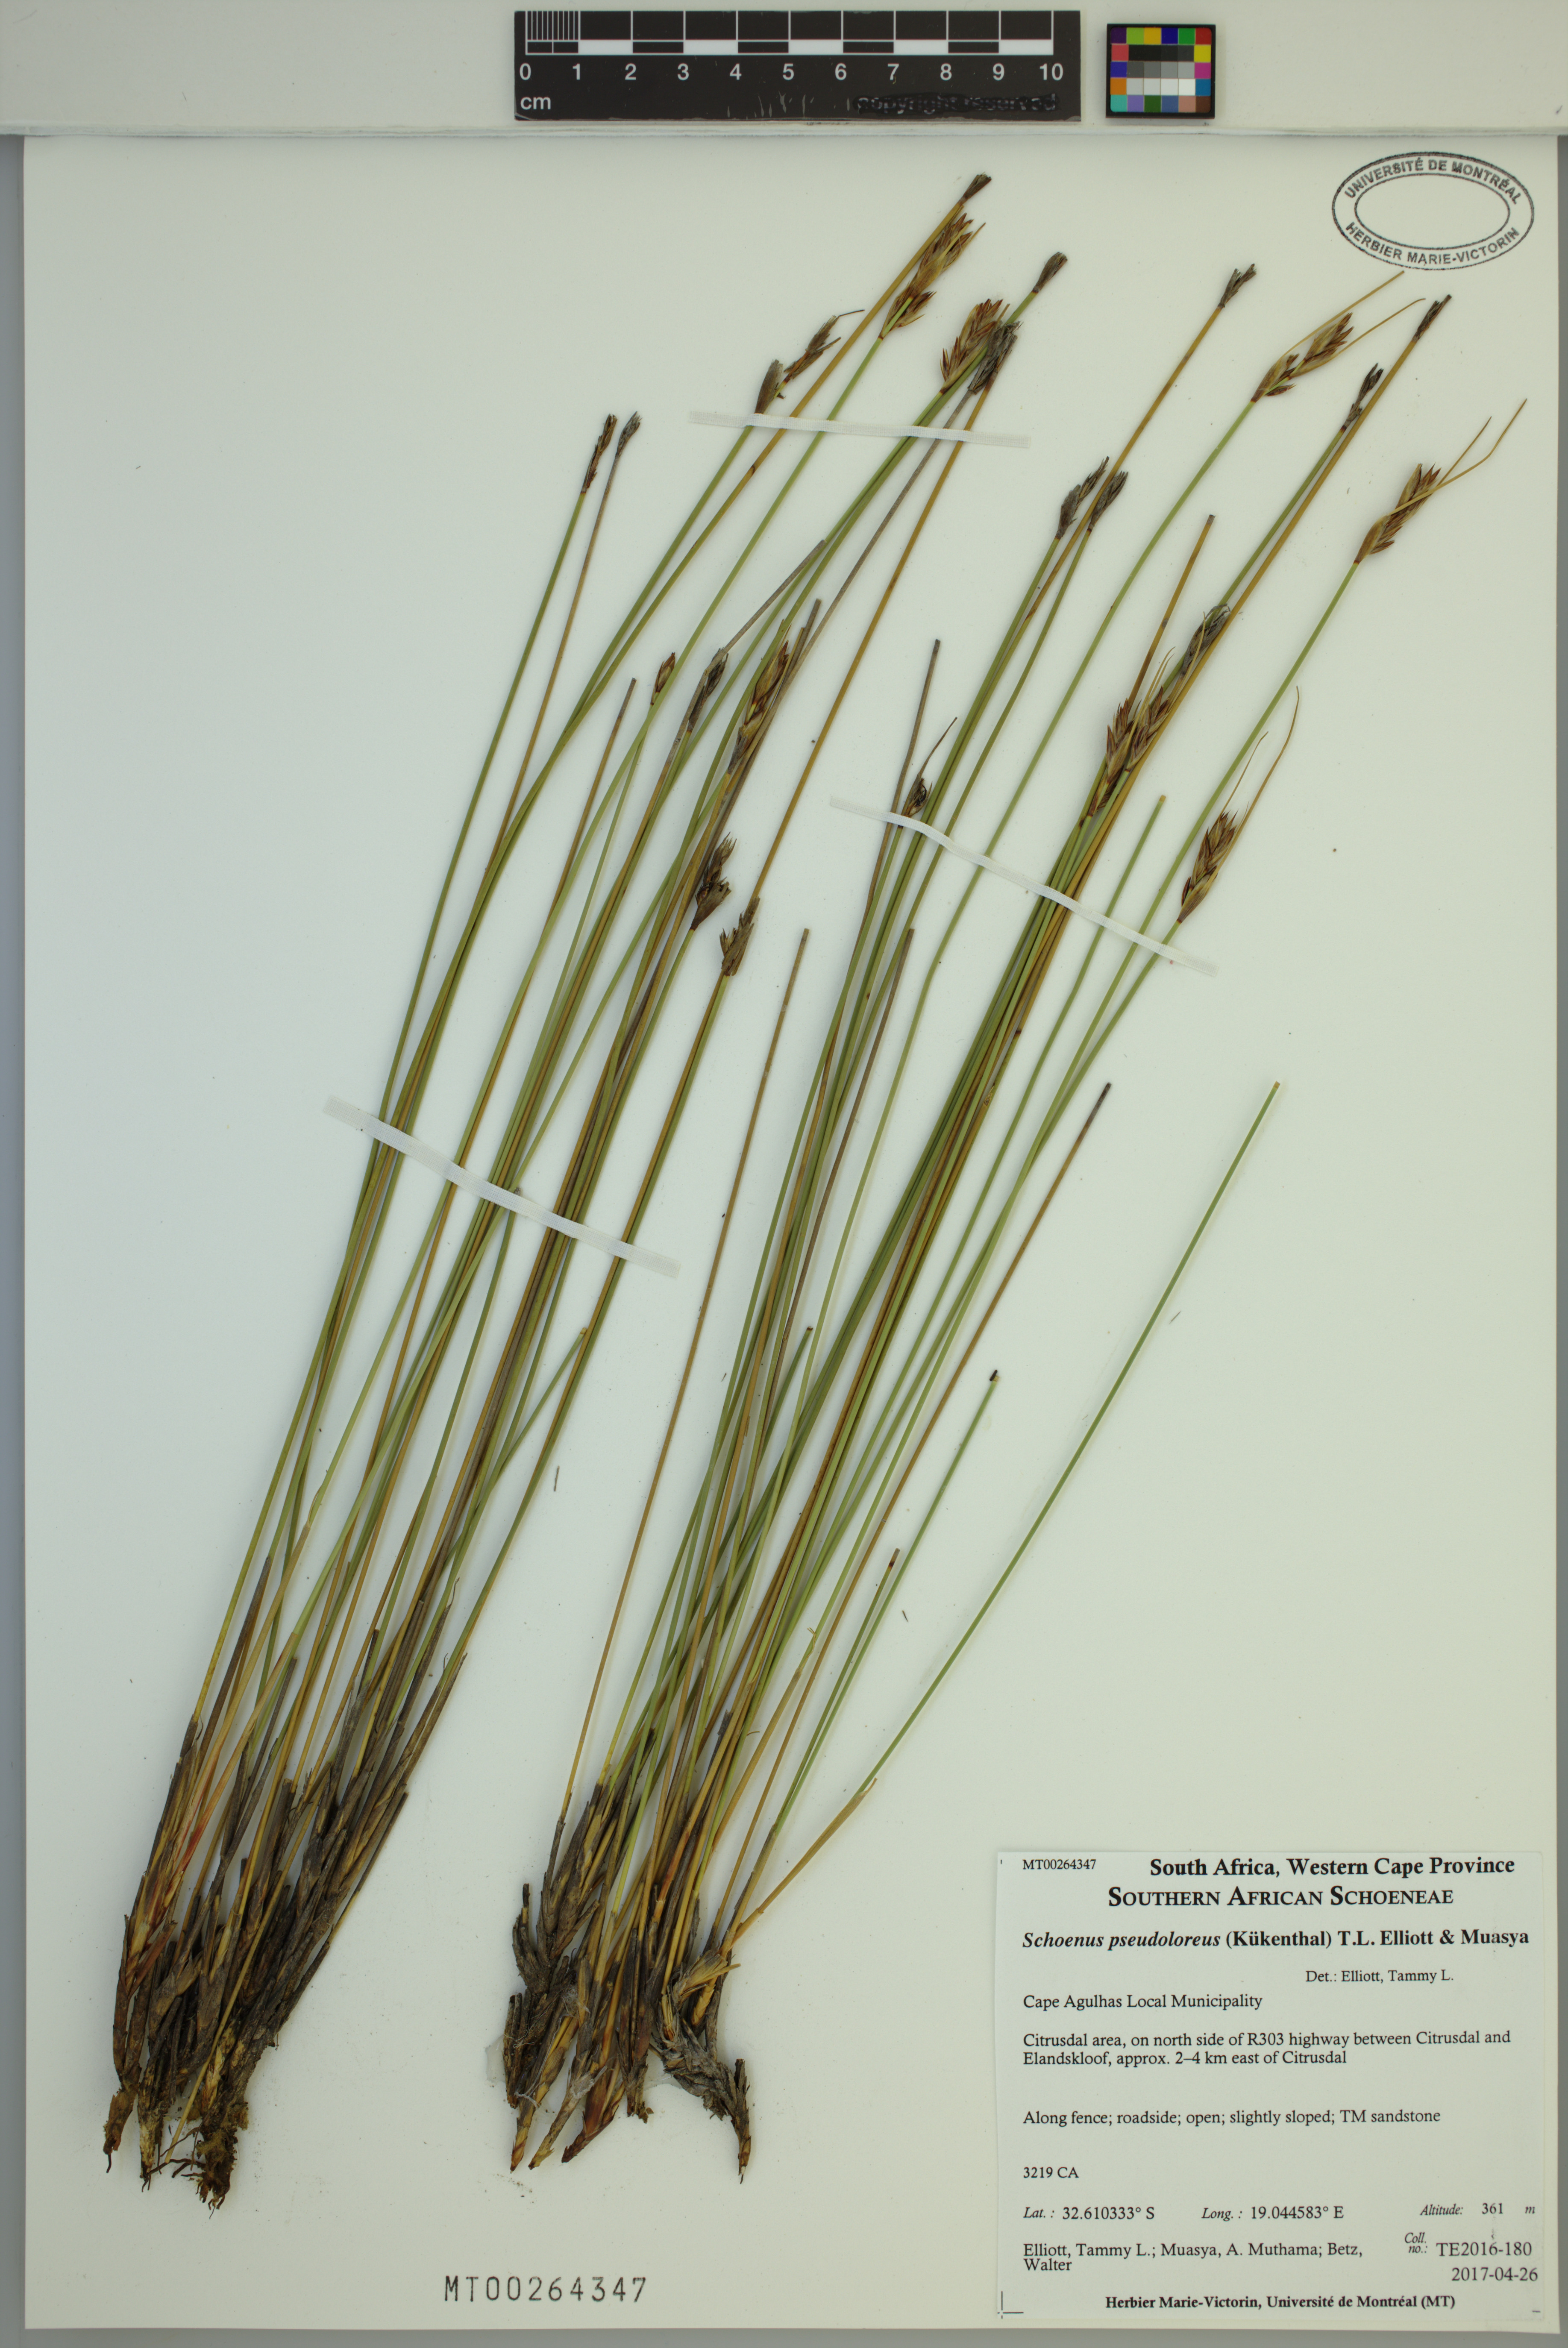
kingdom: Plantae
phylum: Tracheophyta
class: Liliopsida
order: Poales
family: Cyperaceae
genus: Schoenus
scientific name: Schoenus pseudoloreus
